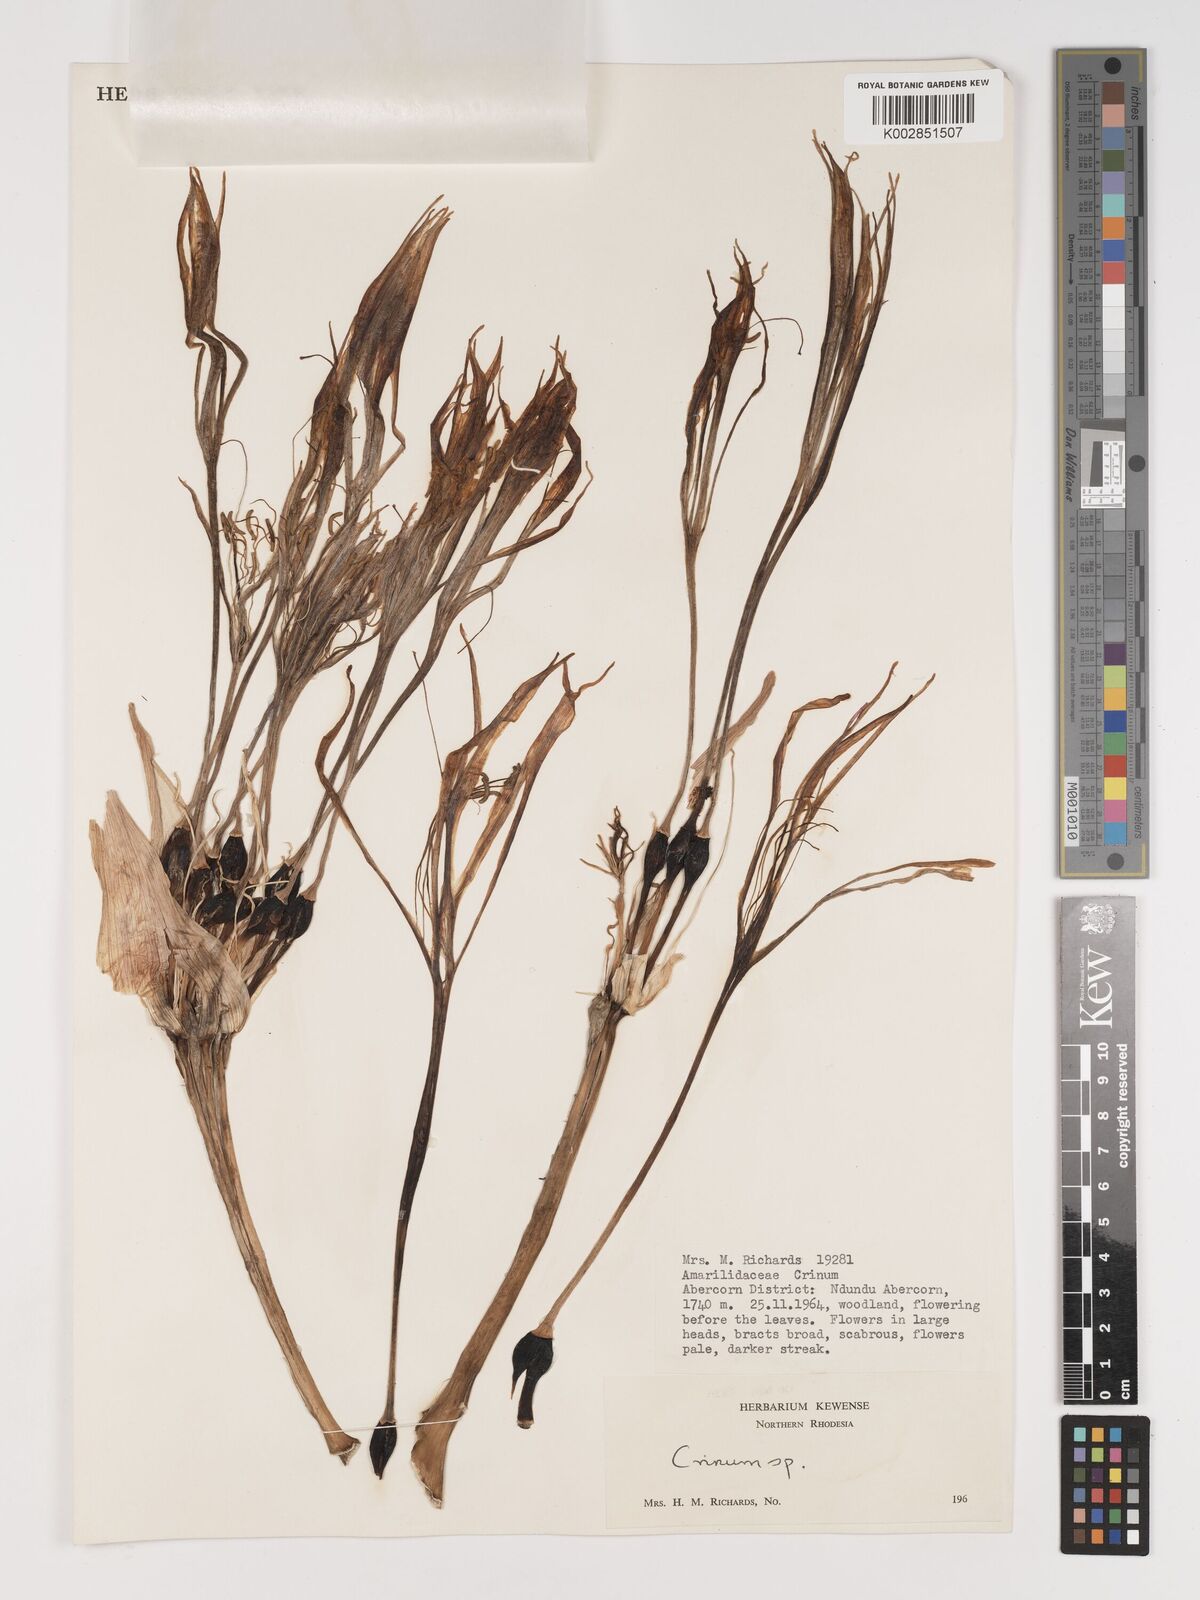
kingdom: Plantae
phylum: Tracheophyta
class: Liliopsida
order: Asparagales
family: Amaryllidaceae
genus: Crinum
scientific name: Crinum stuhlmannii
